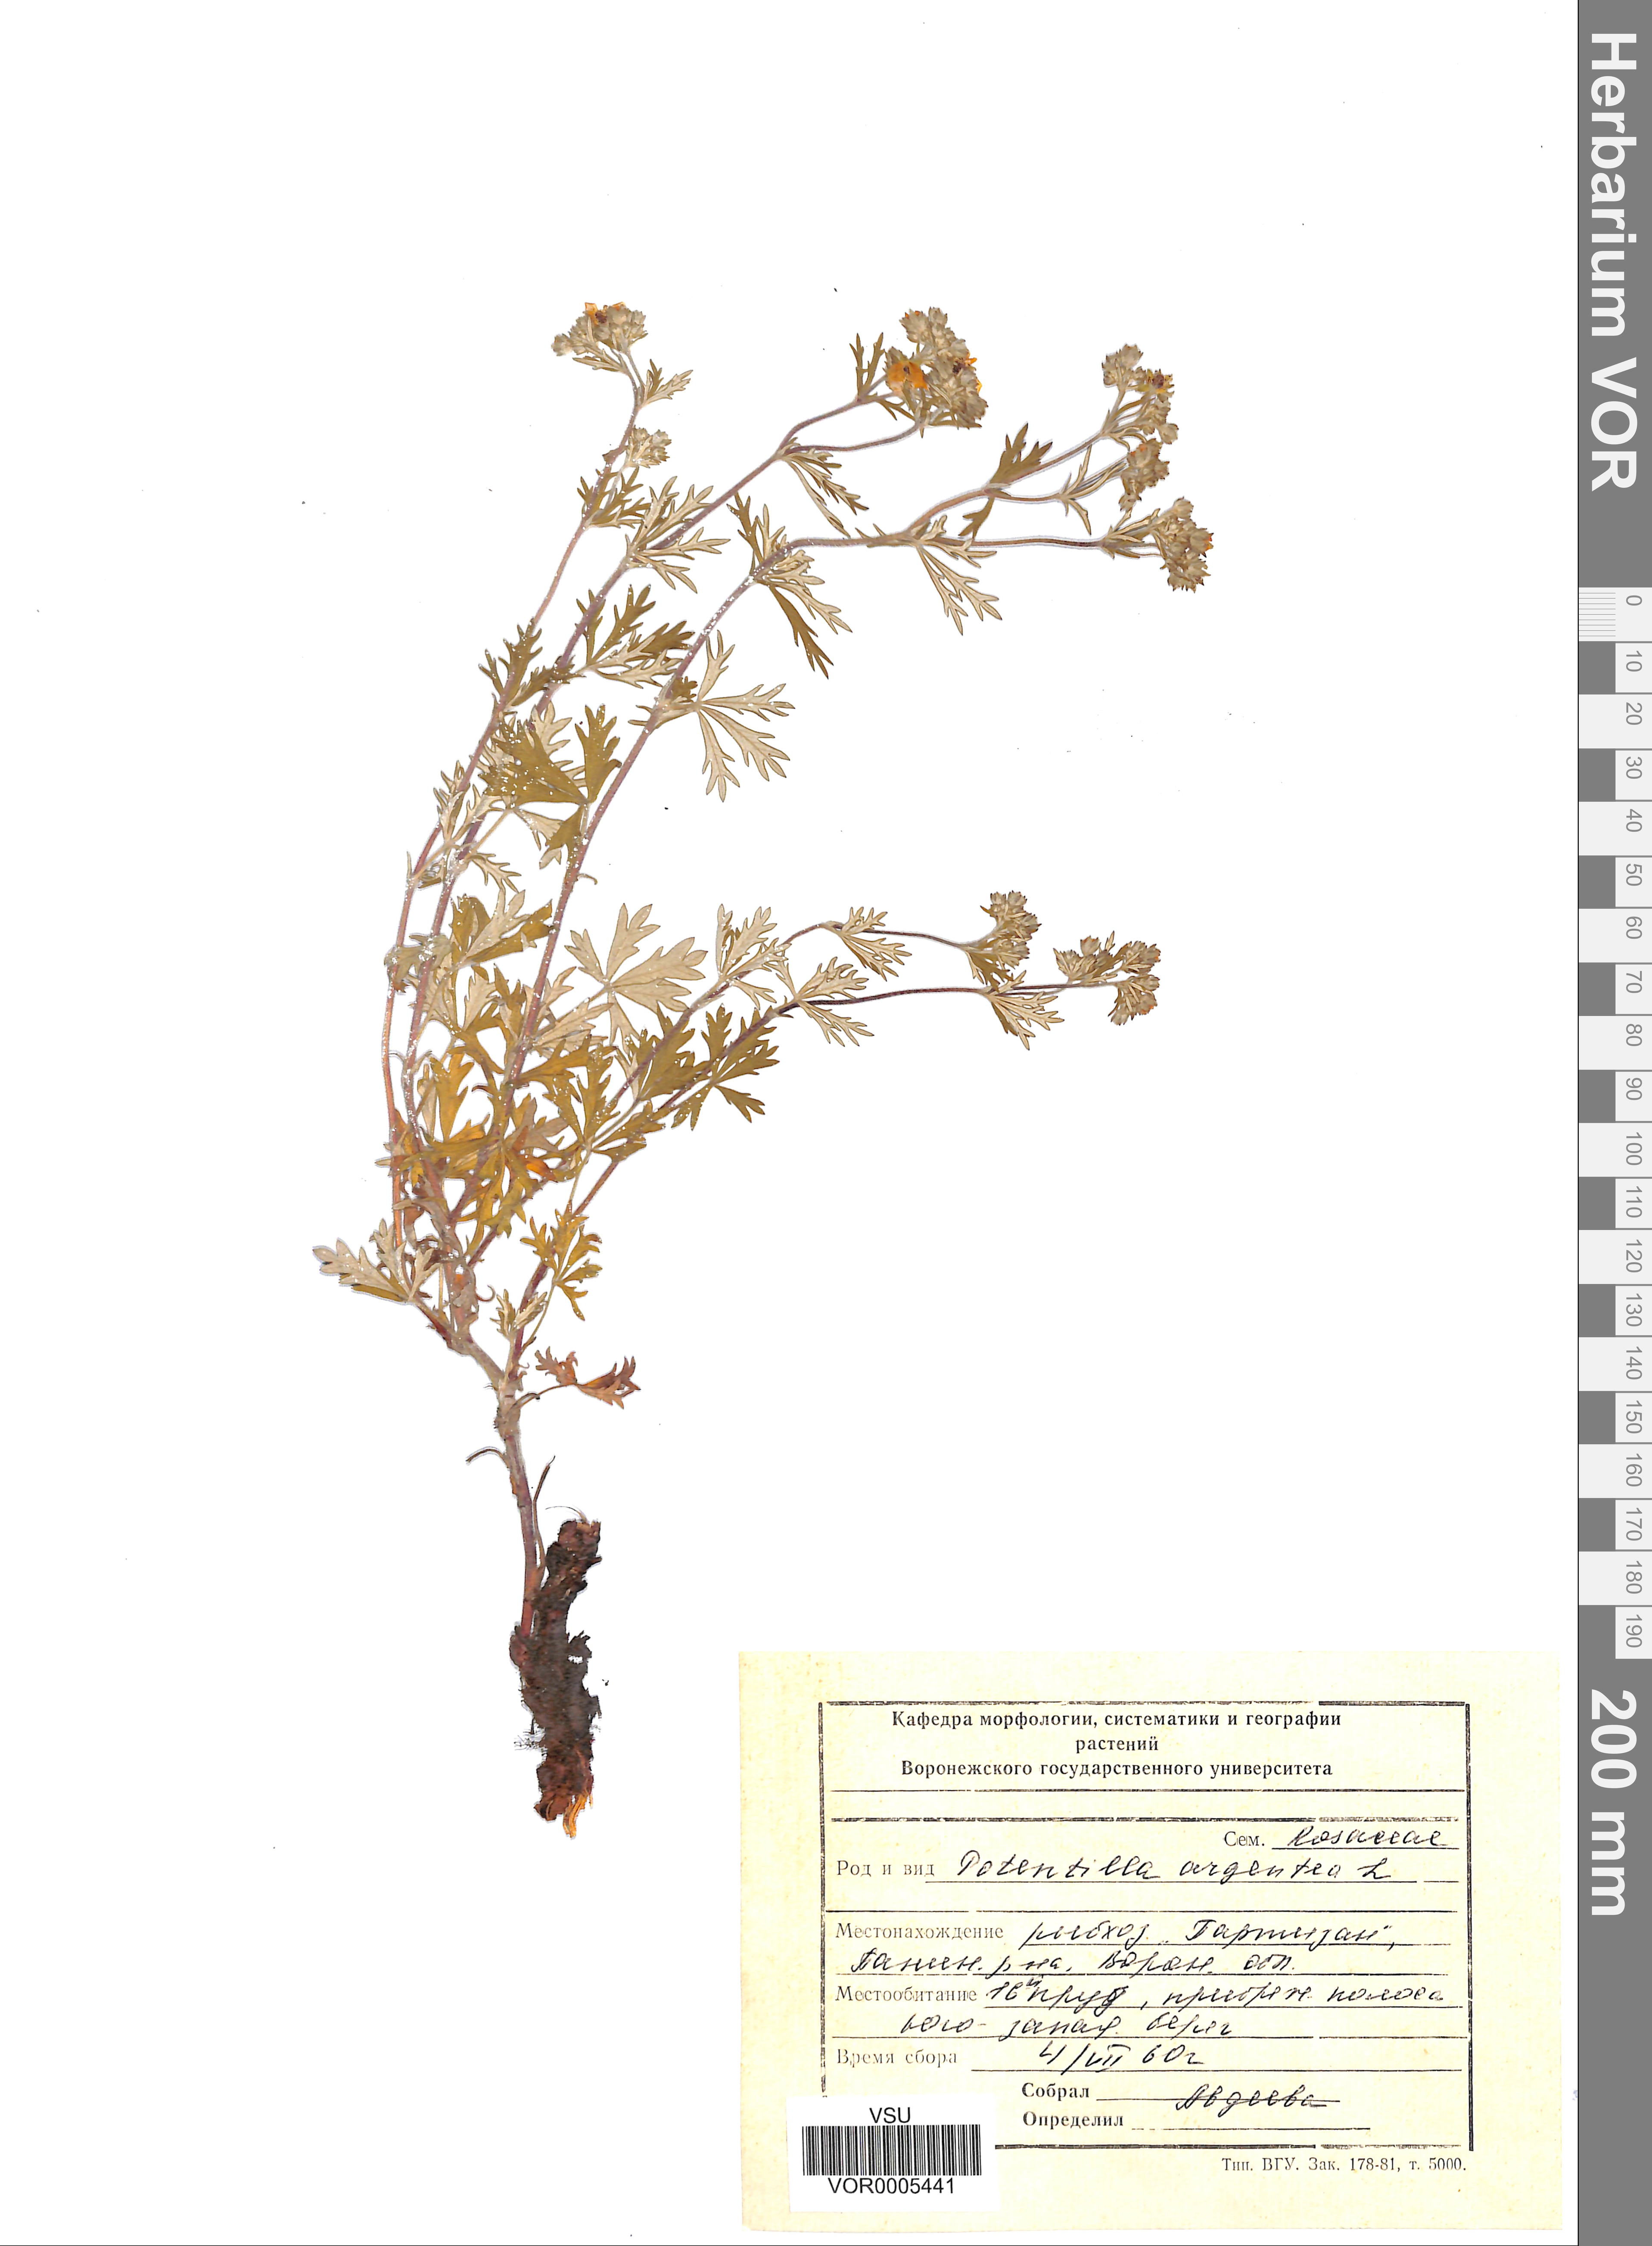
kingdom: Plantae
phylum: Tracheophyta
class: Magnoliopsida
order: Rosales
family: Rosaceae
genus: Potentilla
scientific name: Potentilla argentea
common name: Hoary cinquefoil
